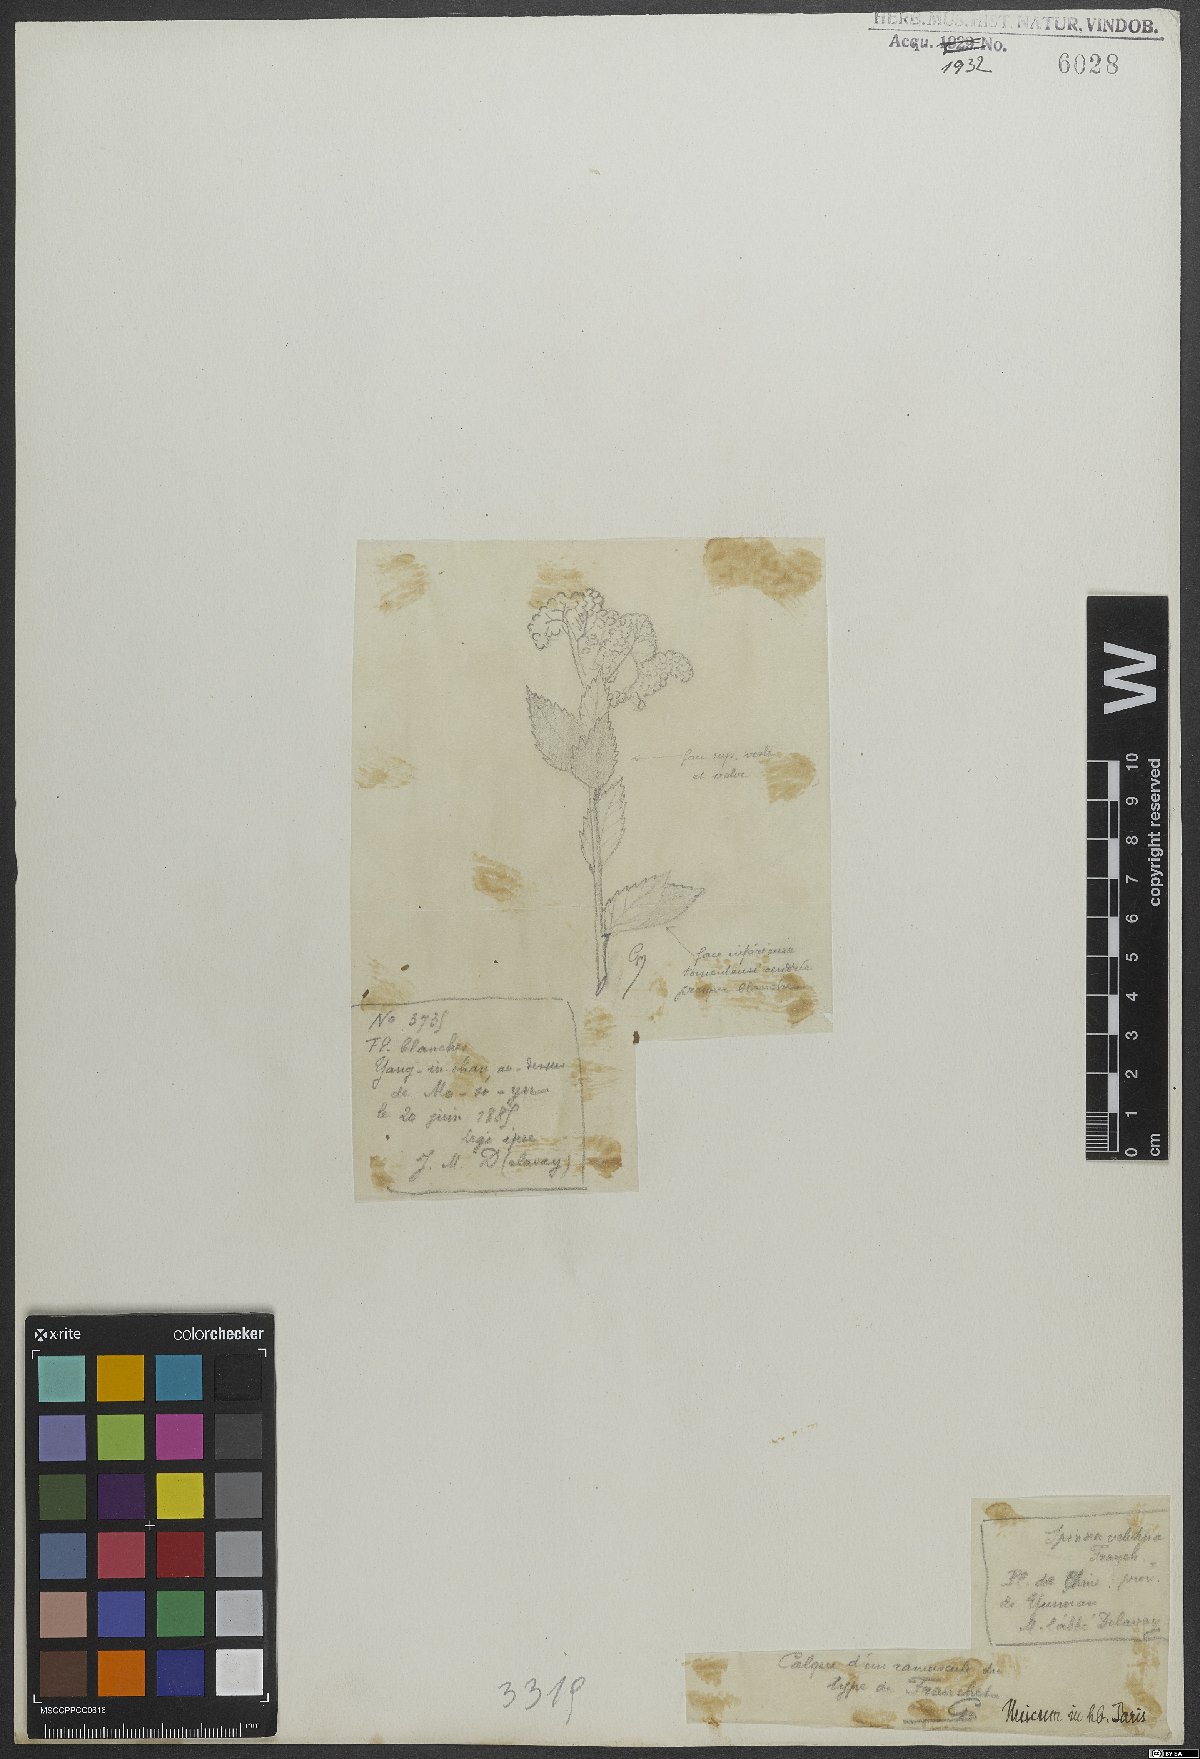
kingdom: Plantae
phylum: Tracheophyta
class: Magnoliopsida
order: Rosales
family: Rosaceae
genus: Spiraea
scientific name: Spiraea velutina
